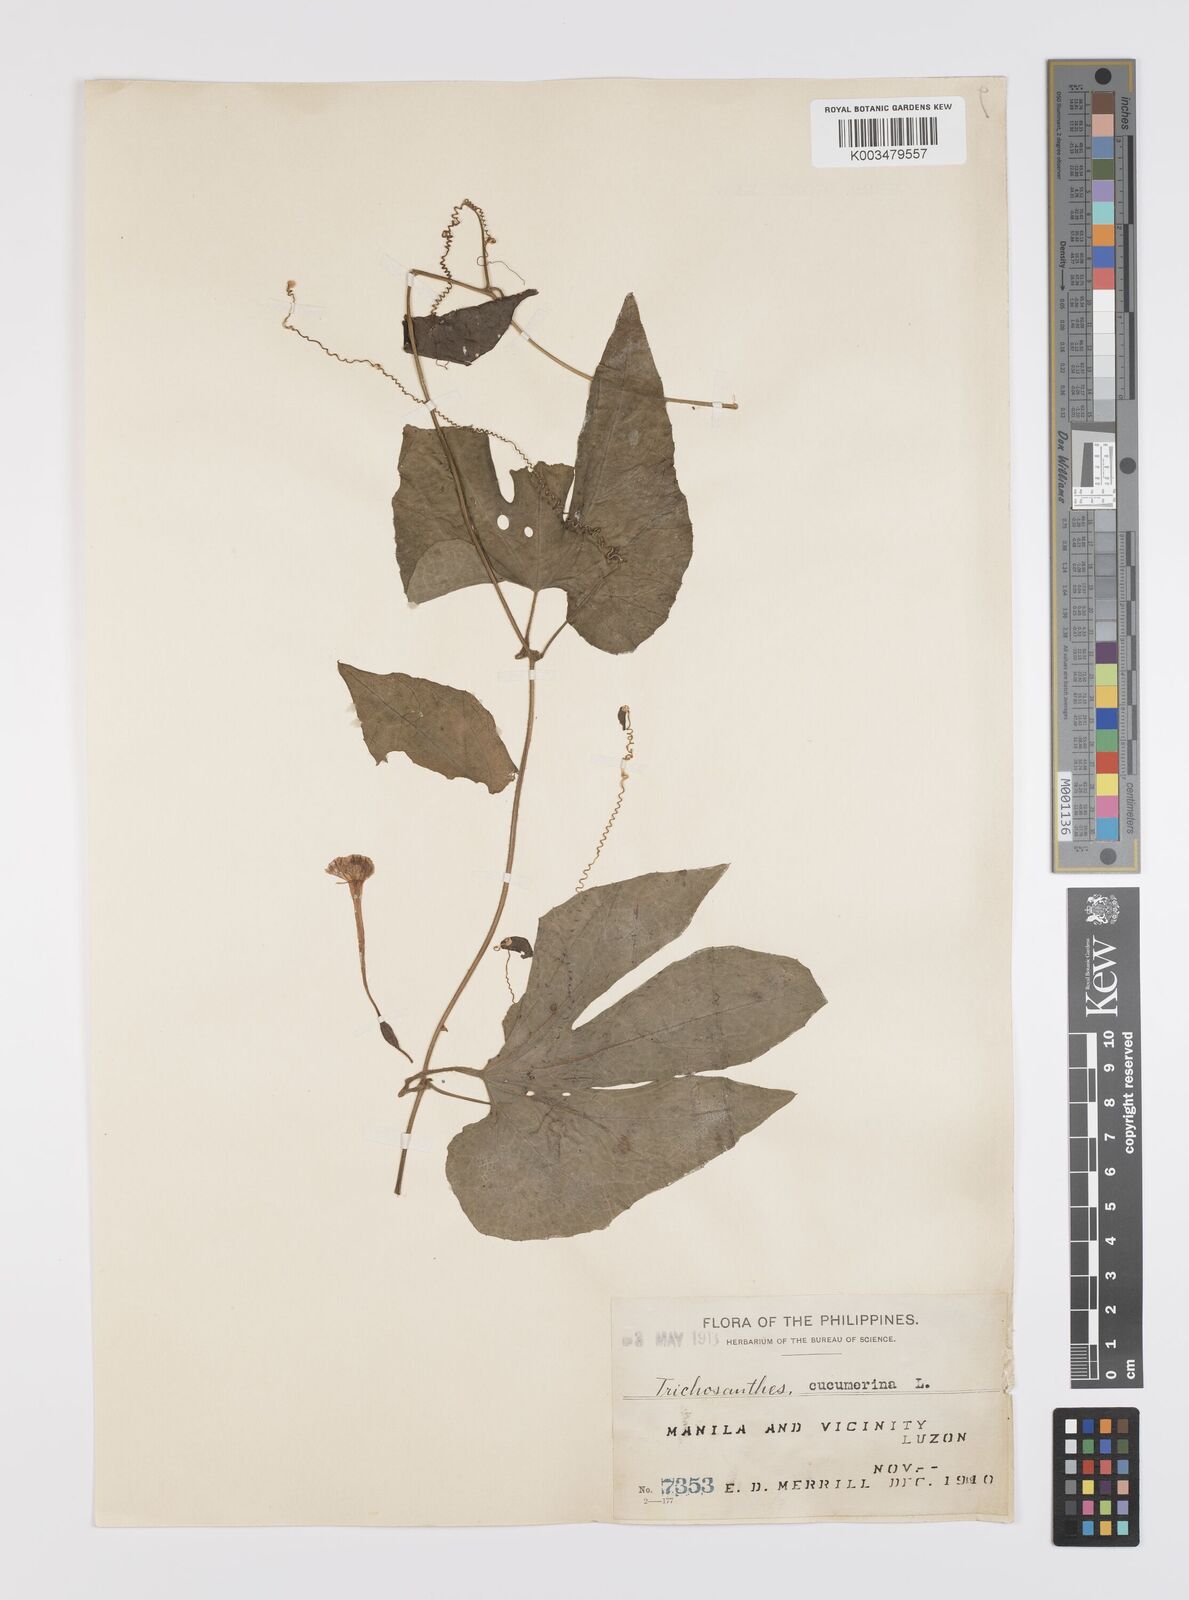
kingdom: Plantae
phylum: Tracheophyta
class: Magnoliopsida
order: Cucurbitales
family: Cucurbitaceae
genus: Trichosanthes
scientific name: Trichosanthes ovigera
